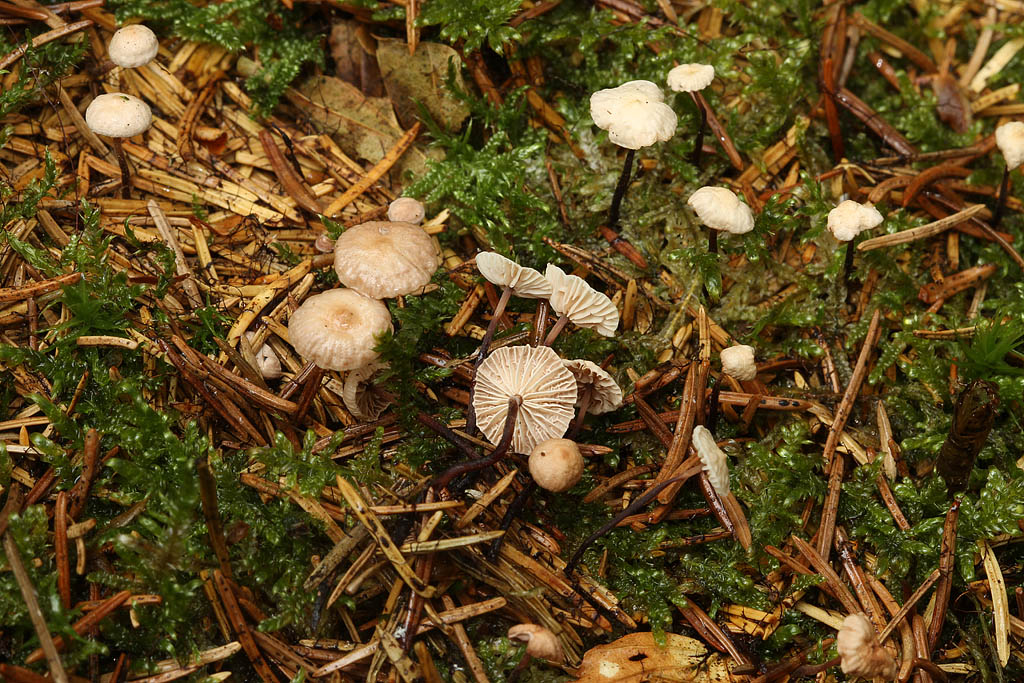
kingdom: Fungi
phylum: Basidiomycota
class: Agaricomycetes
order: Agaricales
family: Omphalotaceae
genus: Paragymnopus
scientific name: Paragymnopus perforans
